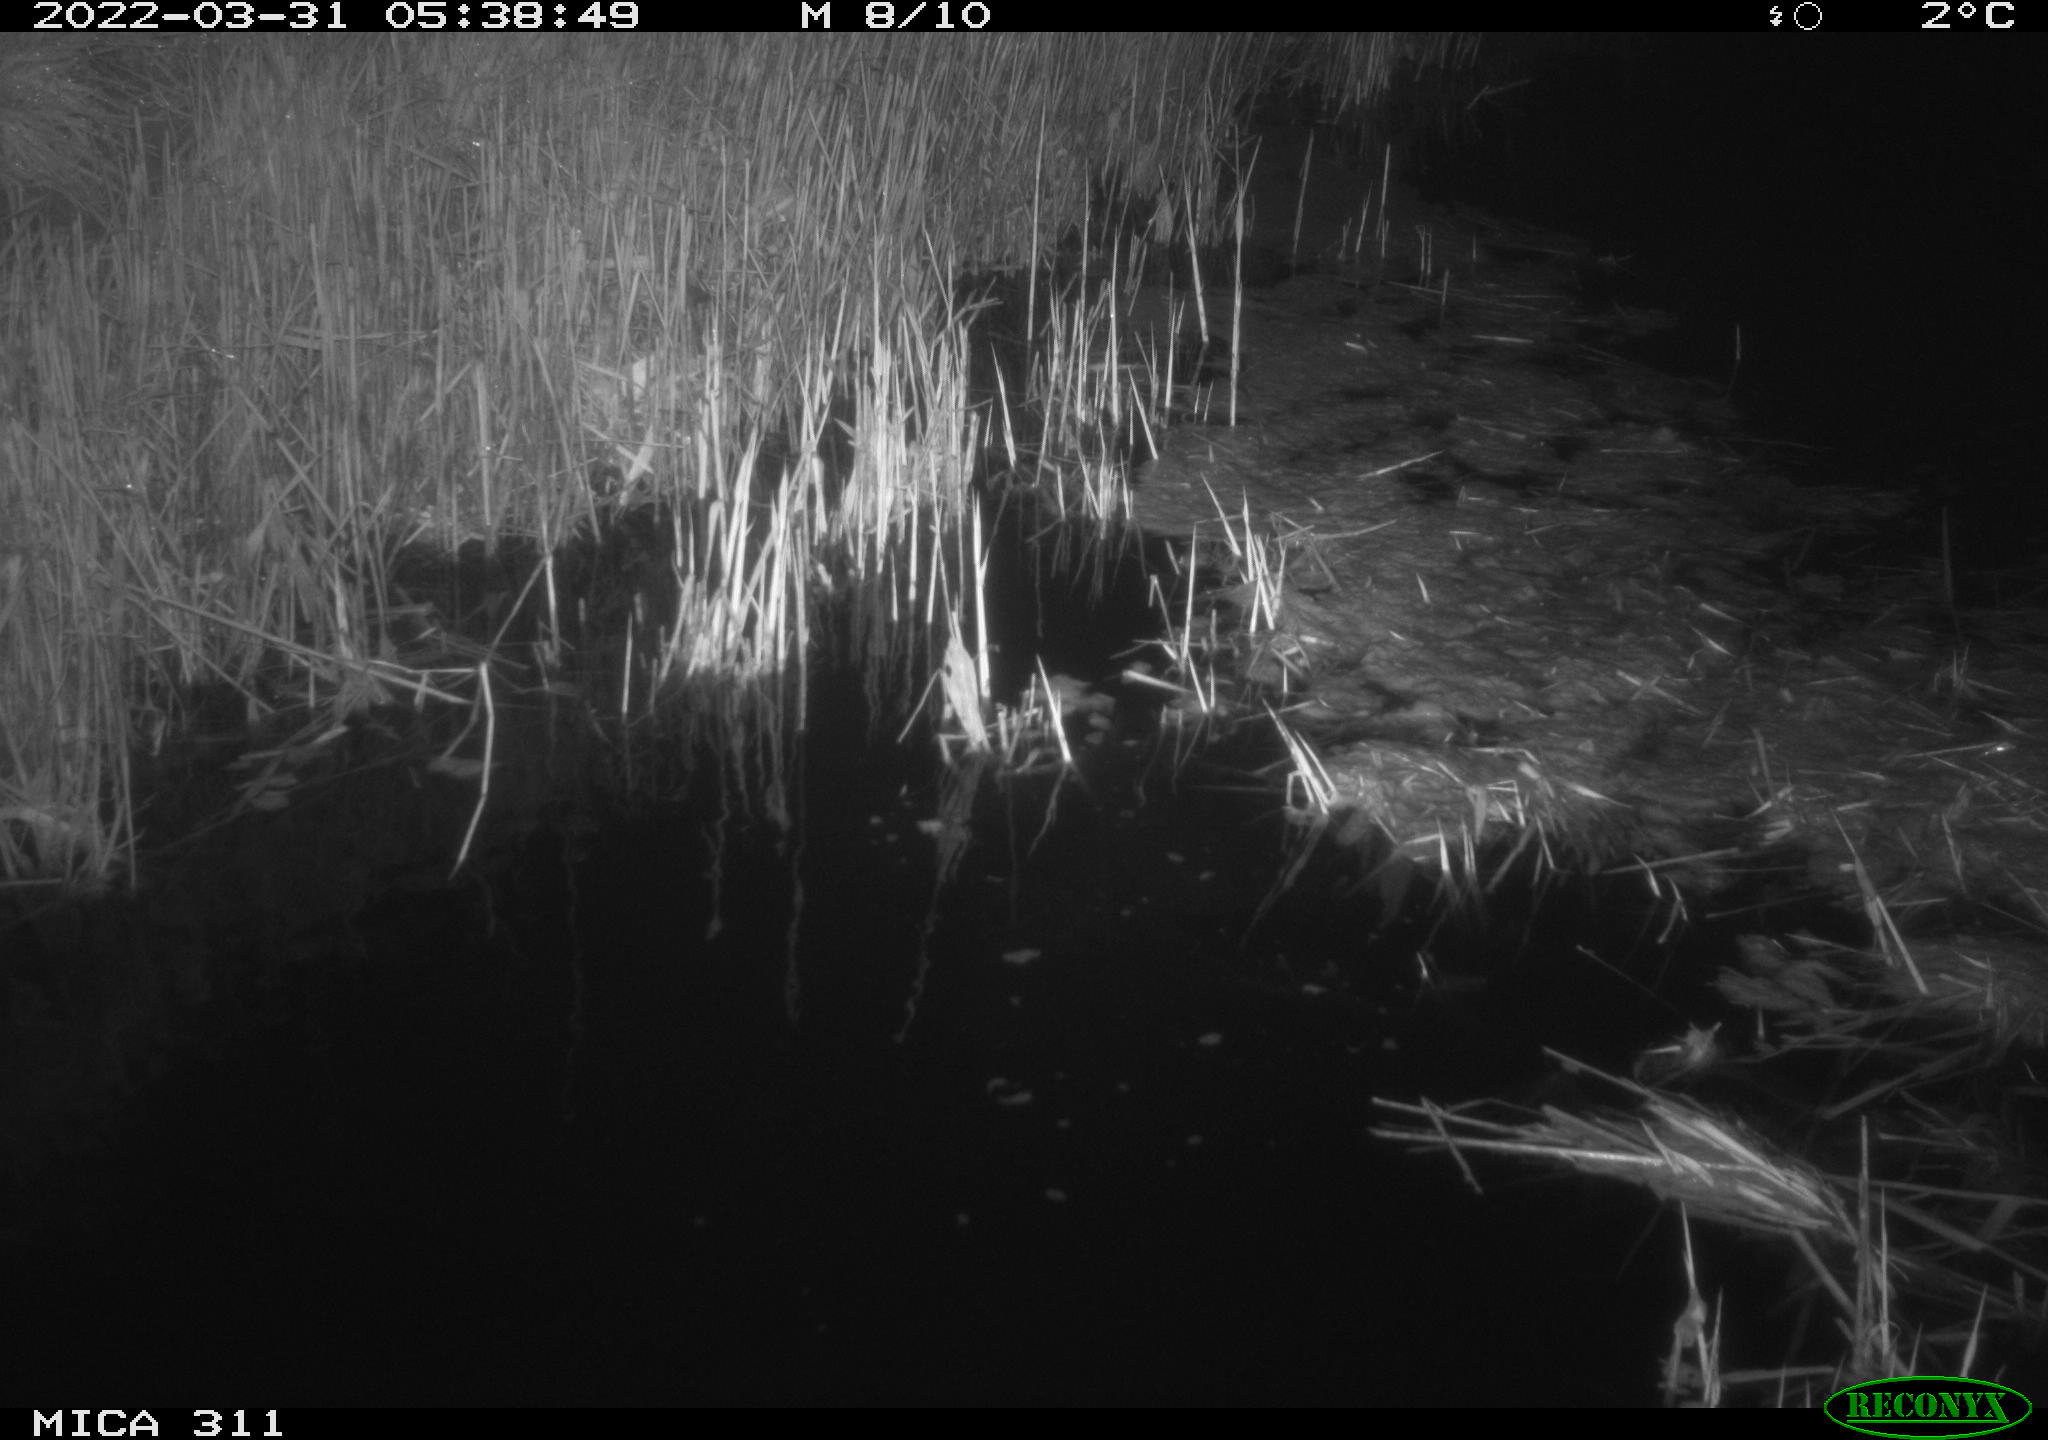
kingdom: Animalia
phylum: Chordata
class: Aves
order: Anseriformes
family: Anatidae
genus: Anas
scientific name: Anas platyrhynchos
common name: Mallard
